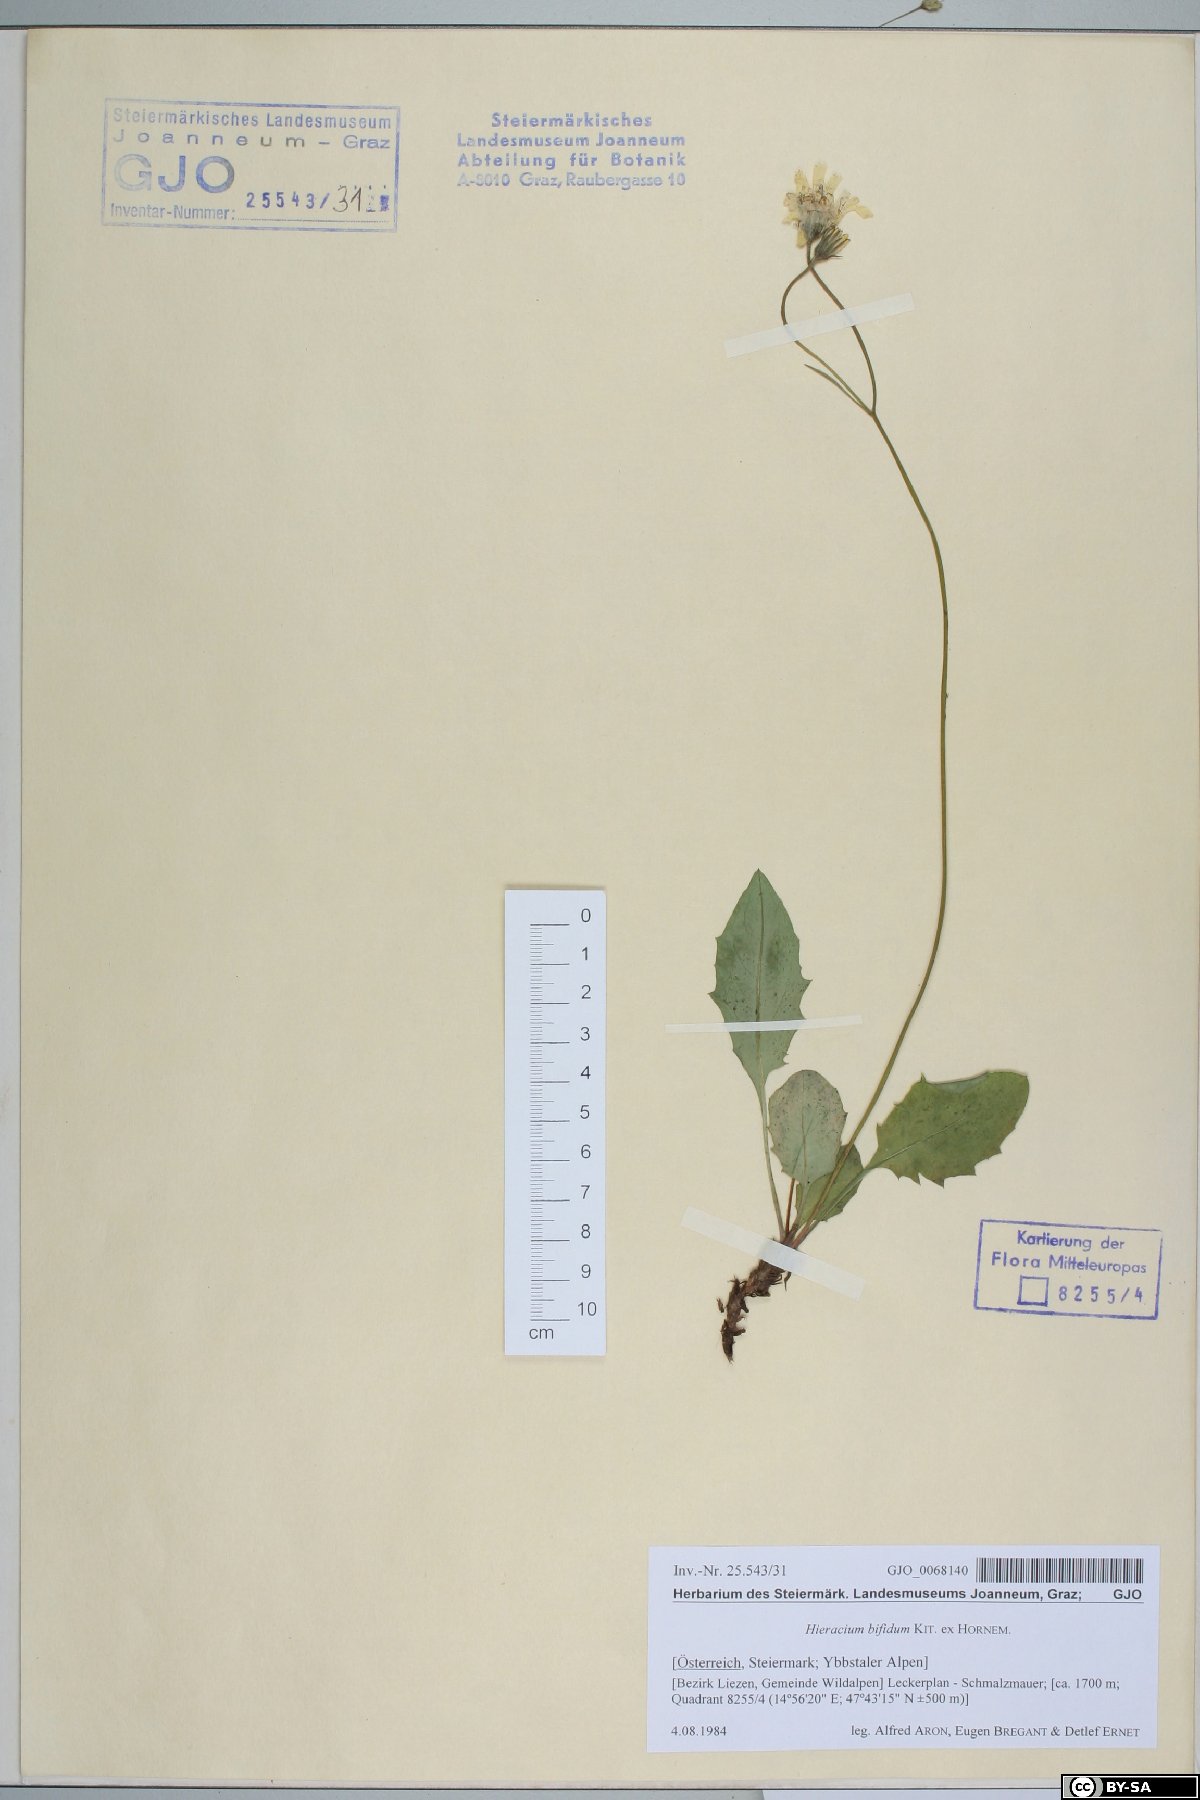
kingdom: Plantae
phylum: Tracheophyta
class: Magnoliopsida
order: Asterales
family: Asteraceae
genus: Hieracium
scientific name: Hieracium bifidum
